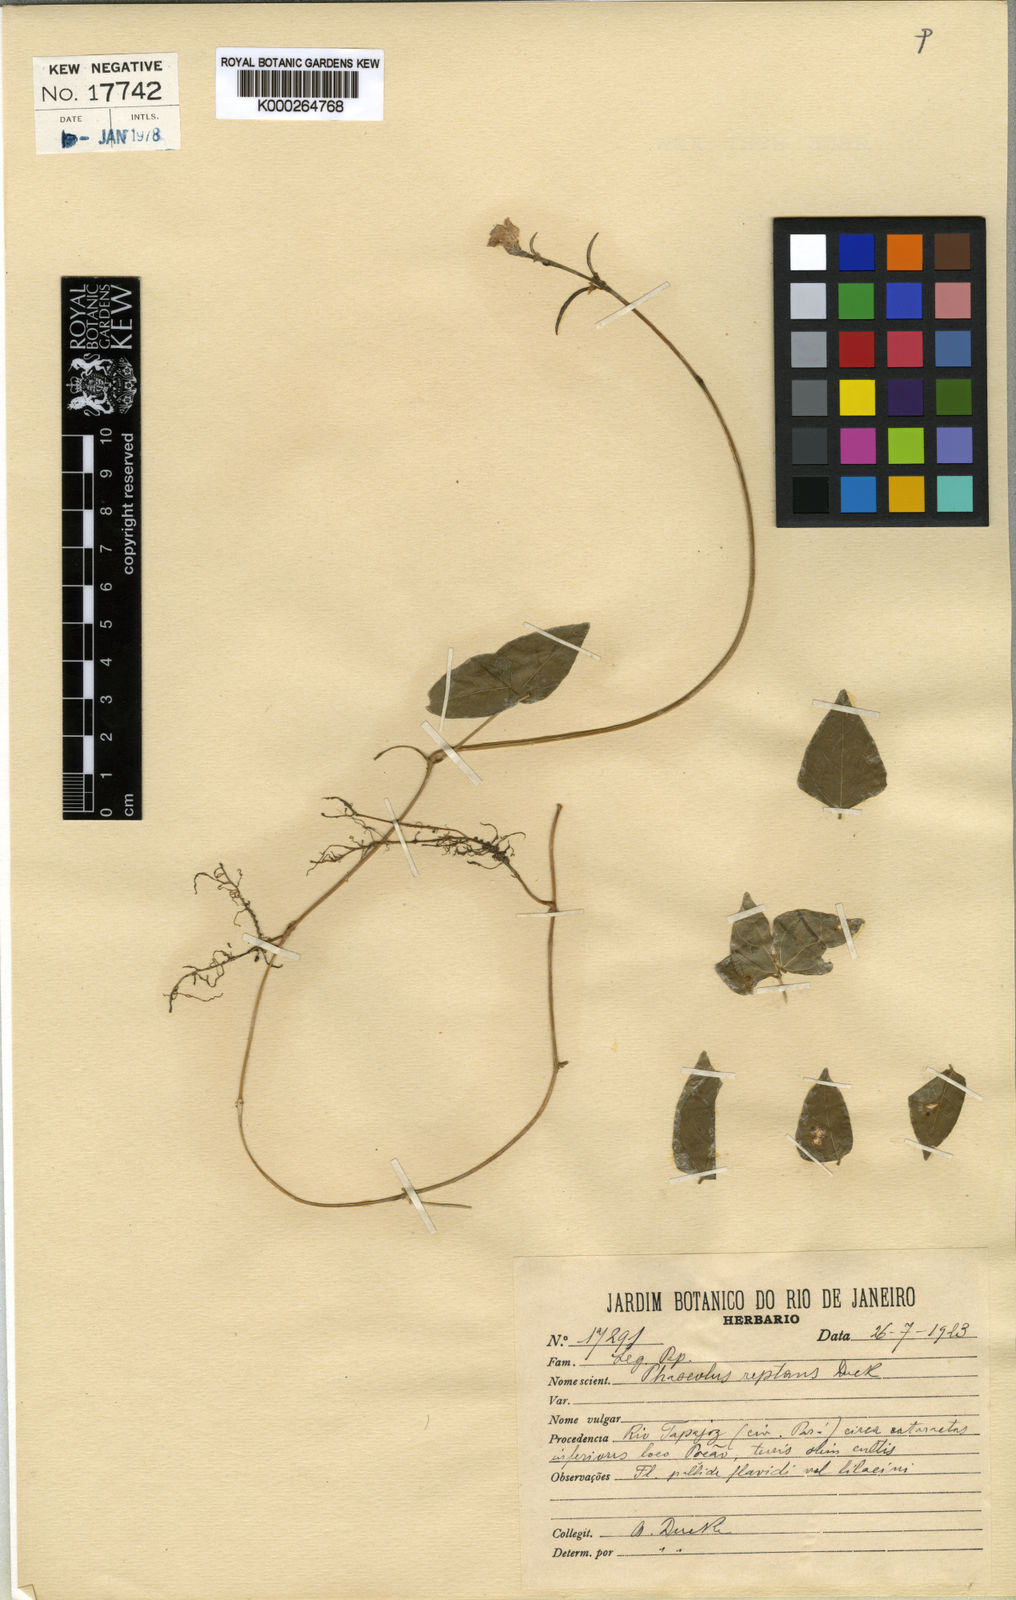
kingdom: Plantae
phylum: Tracheophyta
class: Magnoliopsida
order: Fabales
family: Fabaceae
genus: Ancistrotropis
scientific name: Ancistrotropis peduncularis
